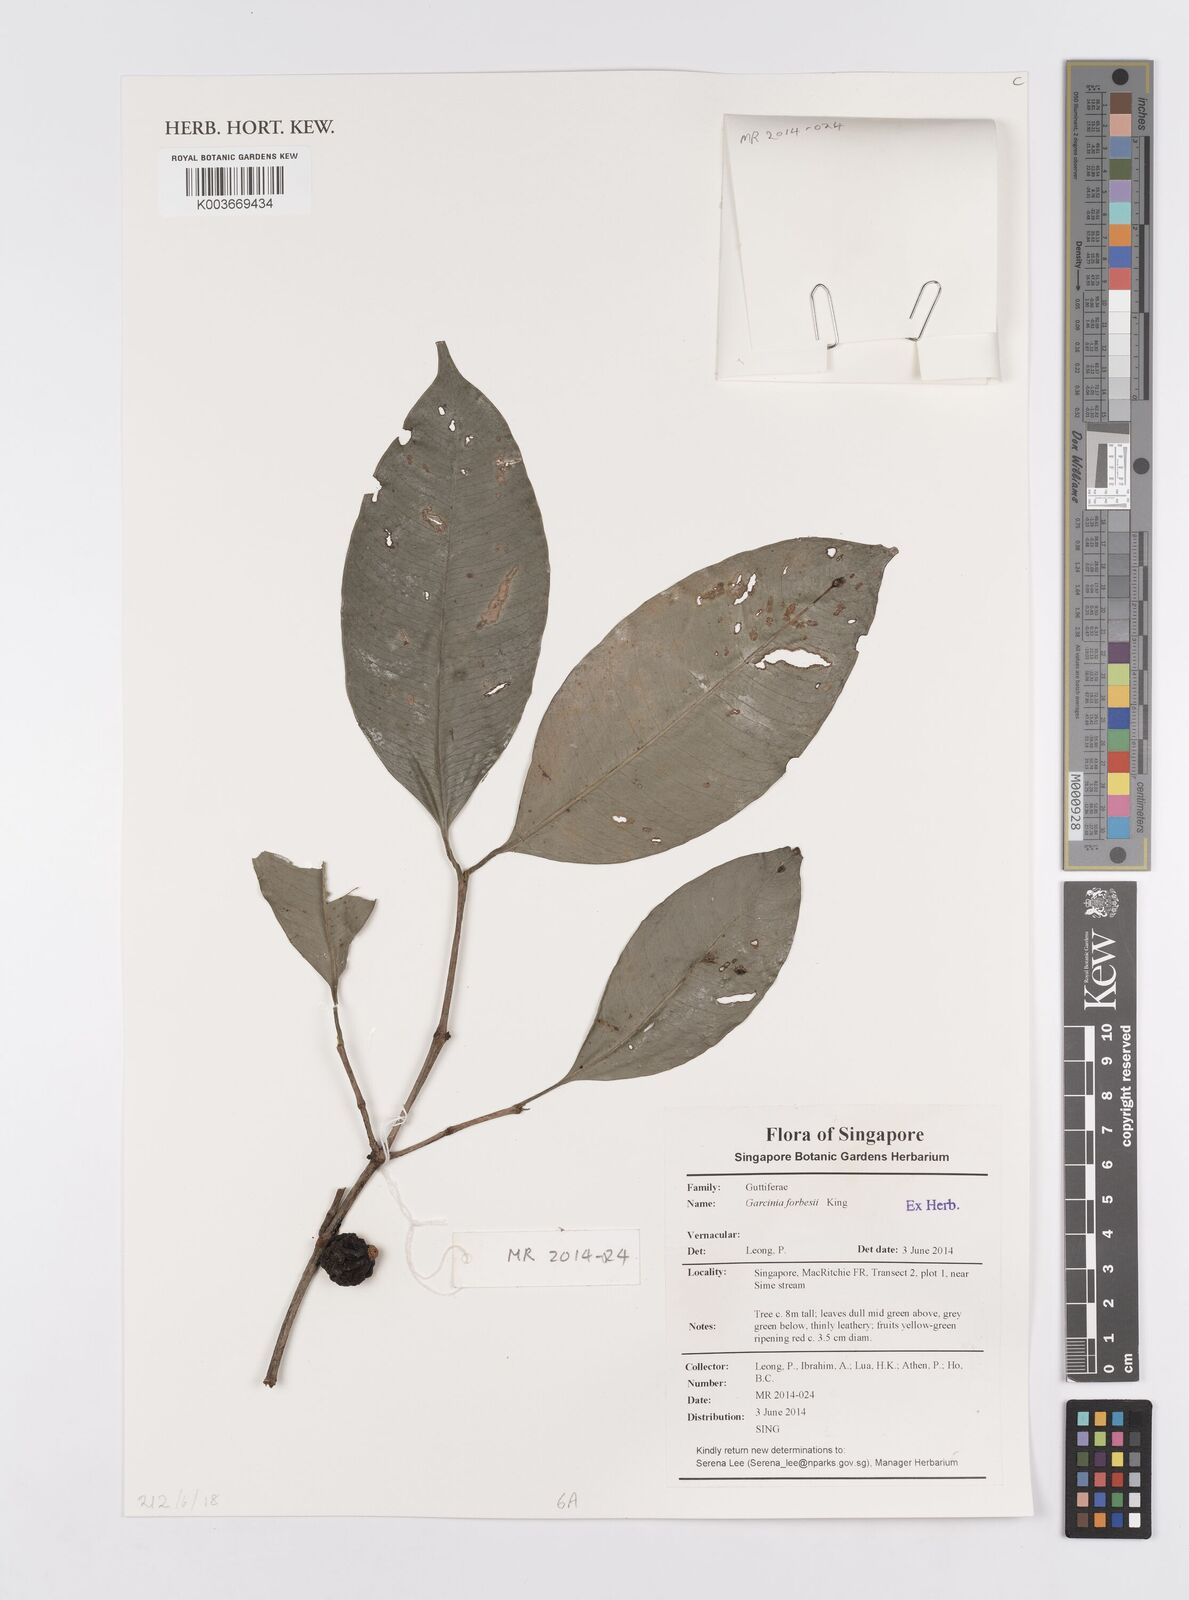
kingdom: Plantae
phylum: Tracheophyta
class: Magnoliopsida
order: Malpighiales
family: Clusiaceae
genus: Garcinia
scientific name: Garcinia forbesii
